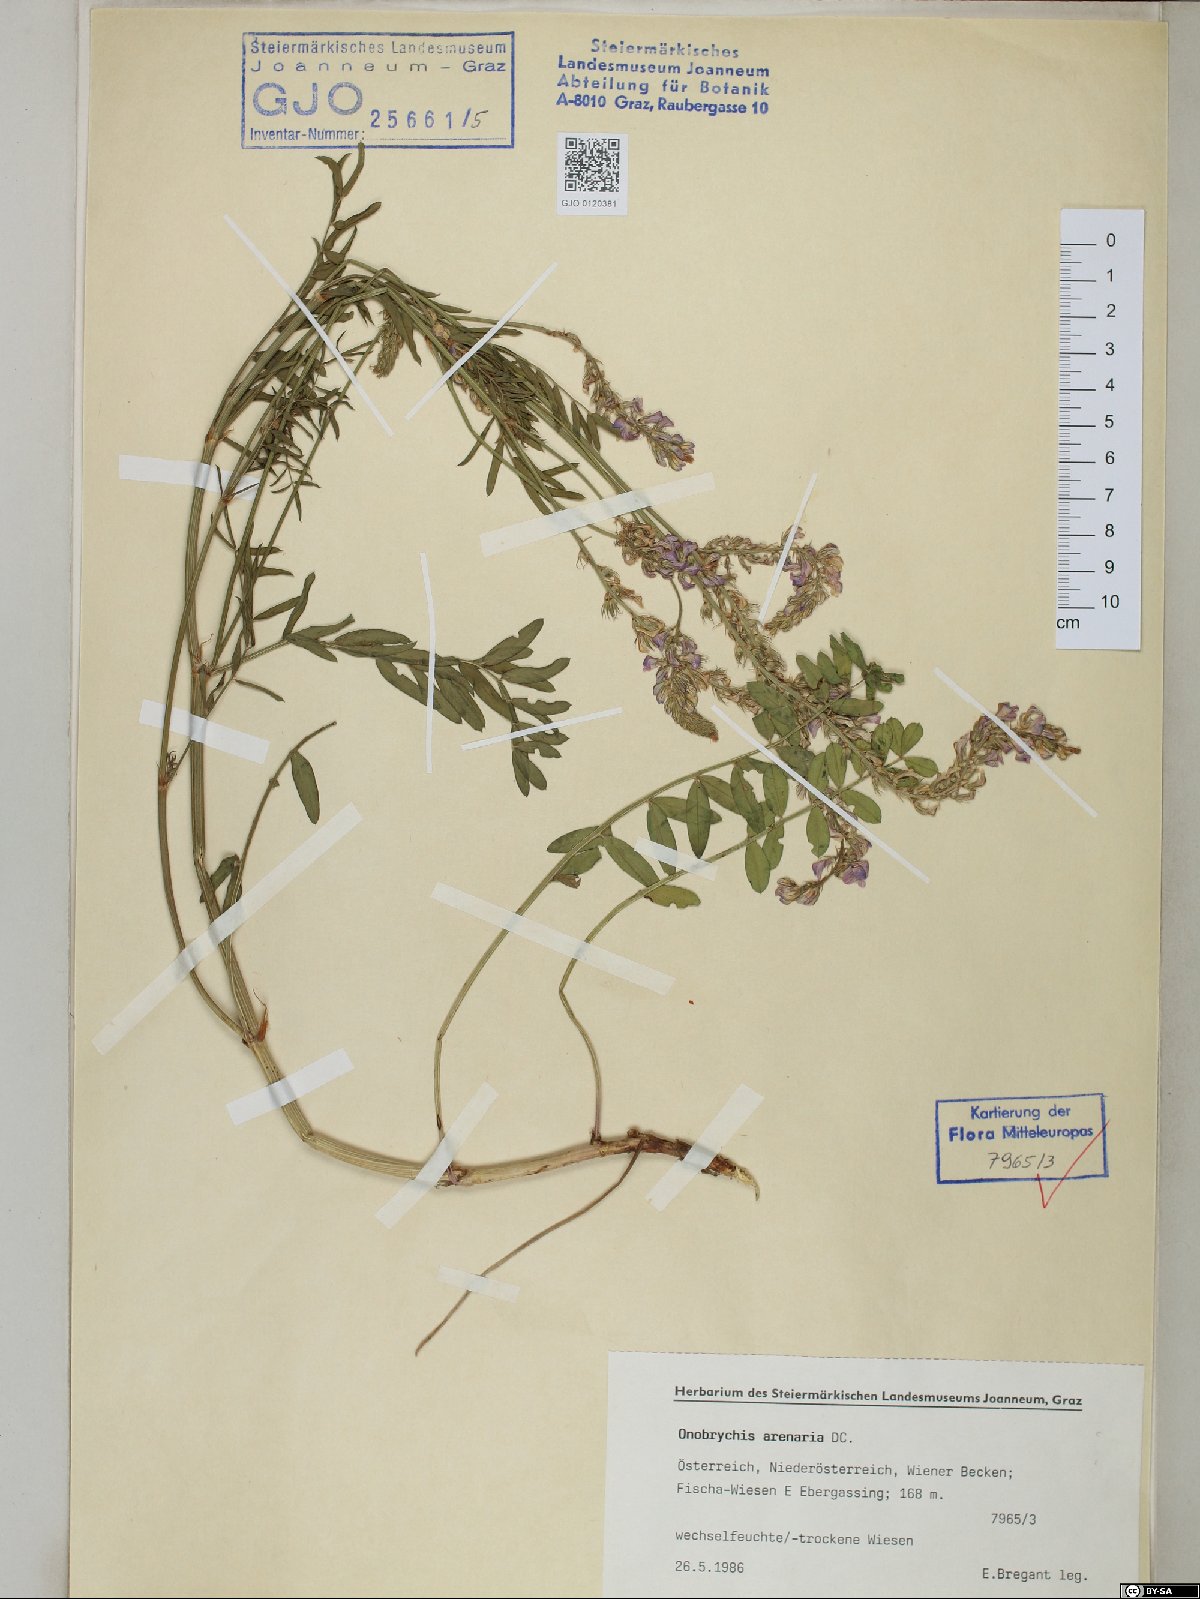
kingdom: Plantae
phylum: Tracheophyta
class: Magnoliopsida
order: Fabales
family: Fabaceae
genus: Onobrychis
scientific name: Onobrychis arenaria
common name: Sand esparcet
